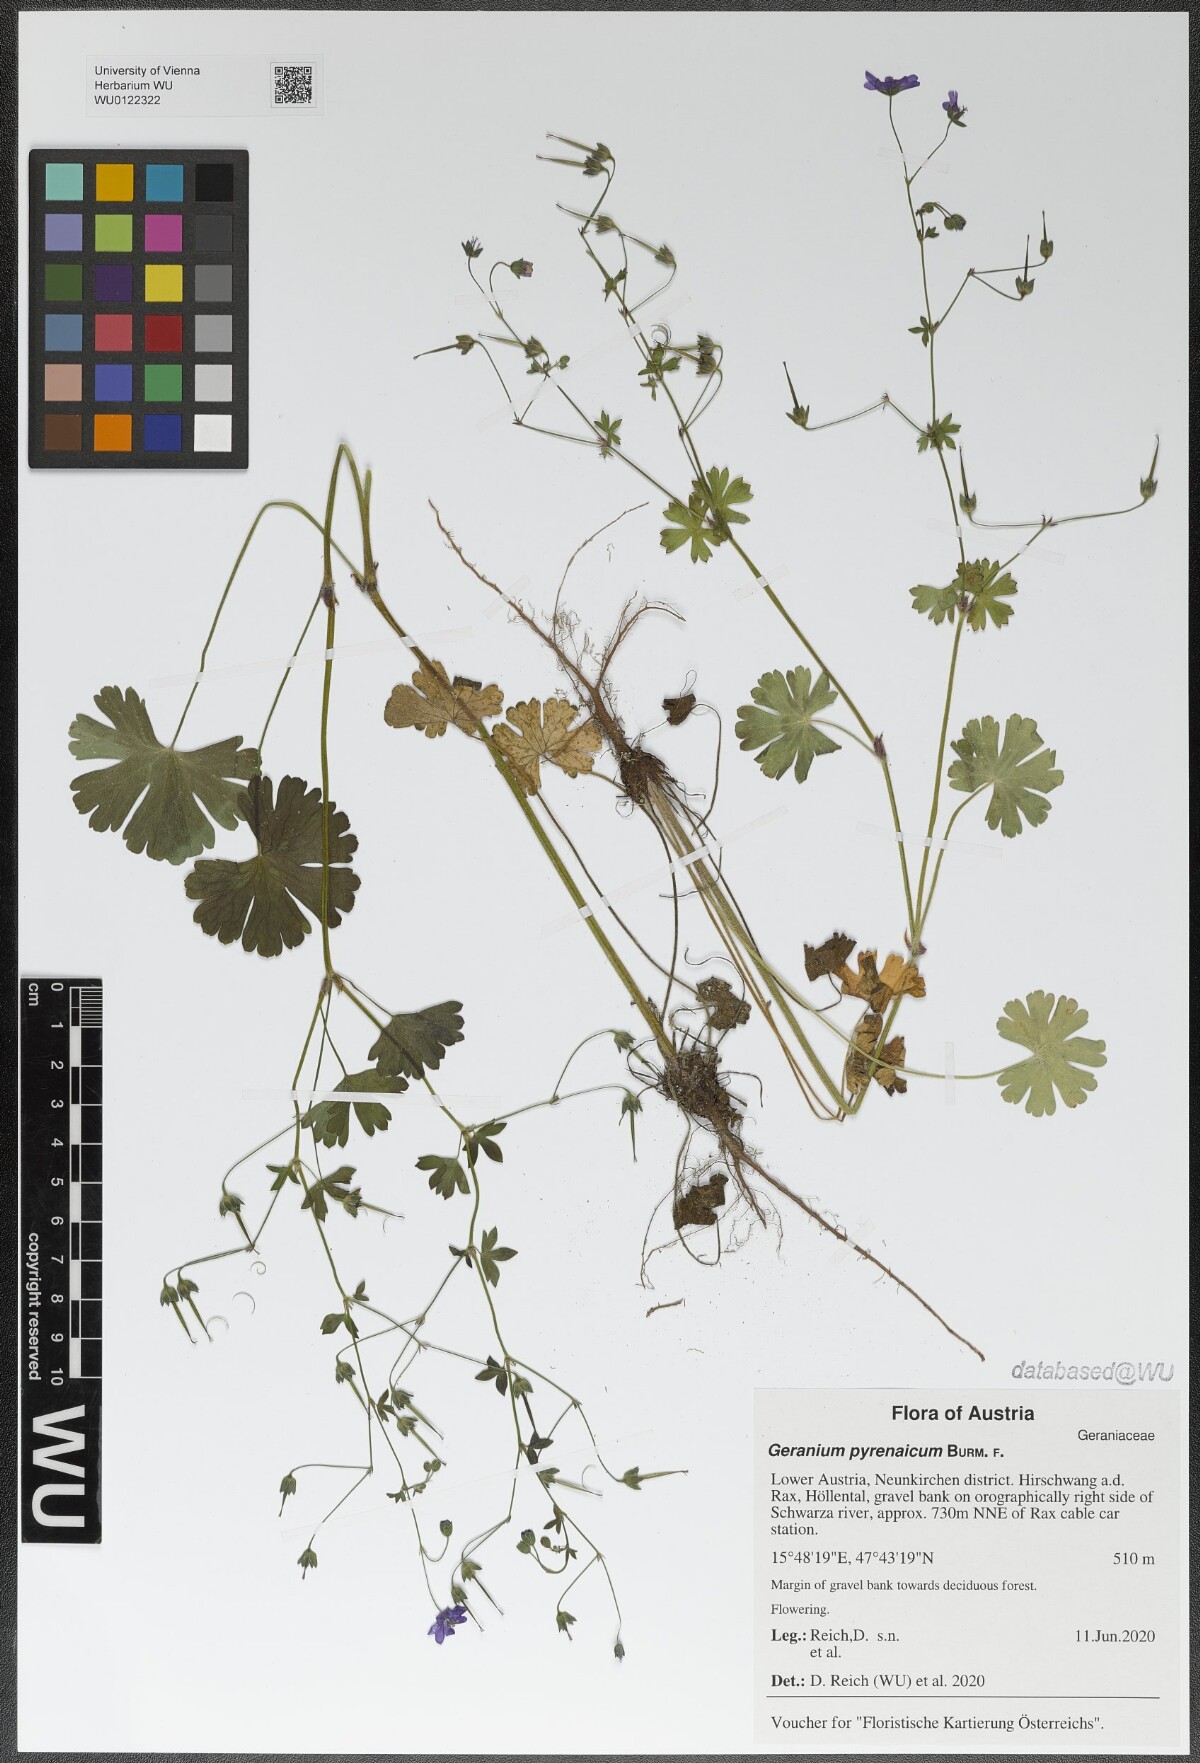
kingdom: Plantae
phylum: Tracheophyta
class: Magnoliopsida
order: Geraniales
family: Geraniaceae
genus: Geranium
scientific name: Geranium pyrenaicum
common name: Hedgerow crane's-bill
